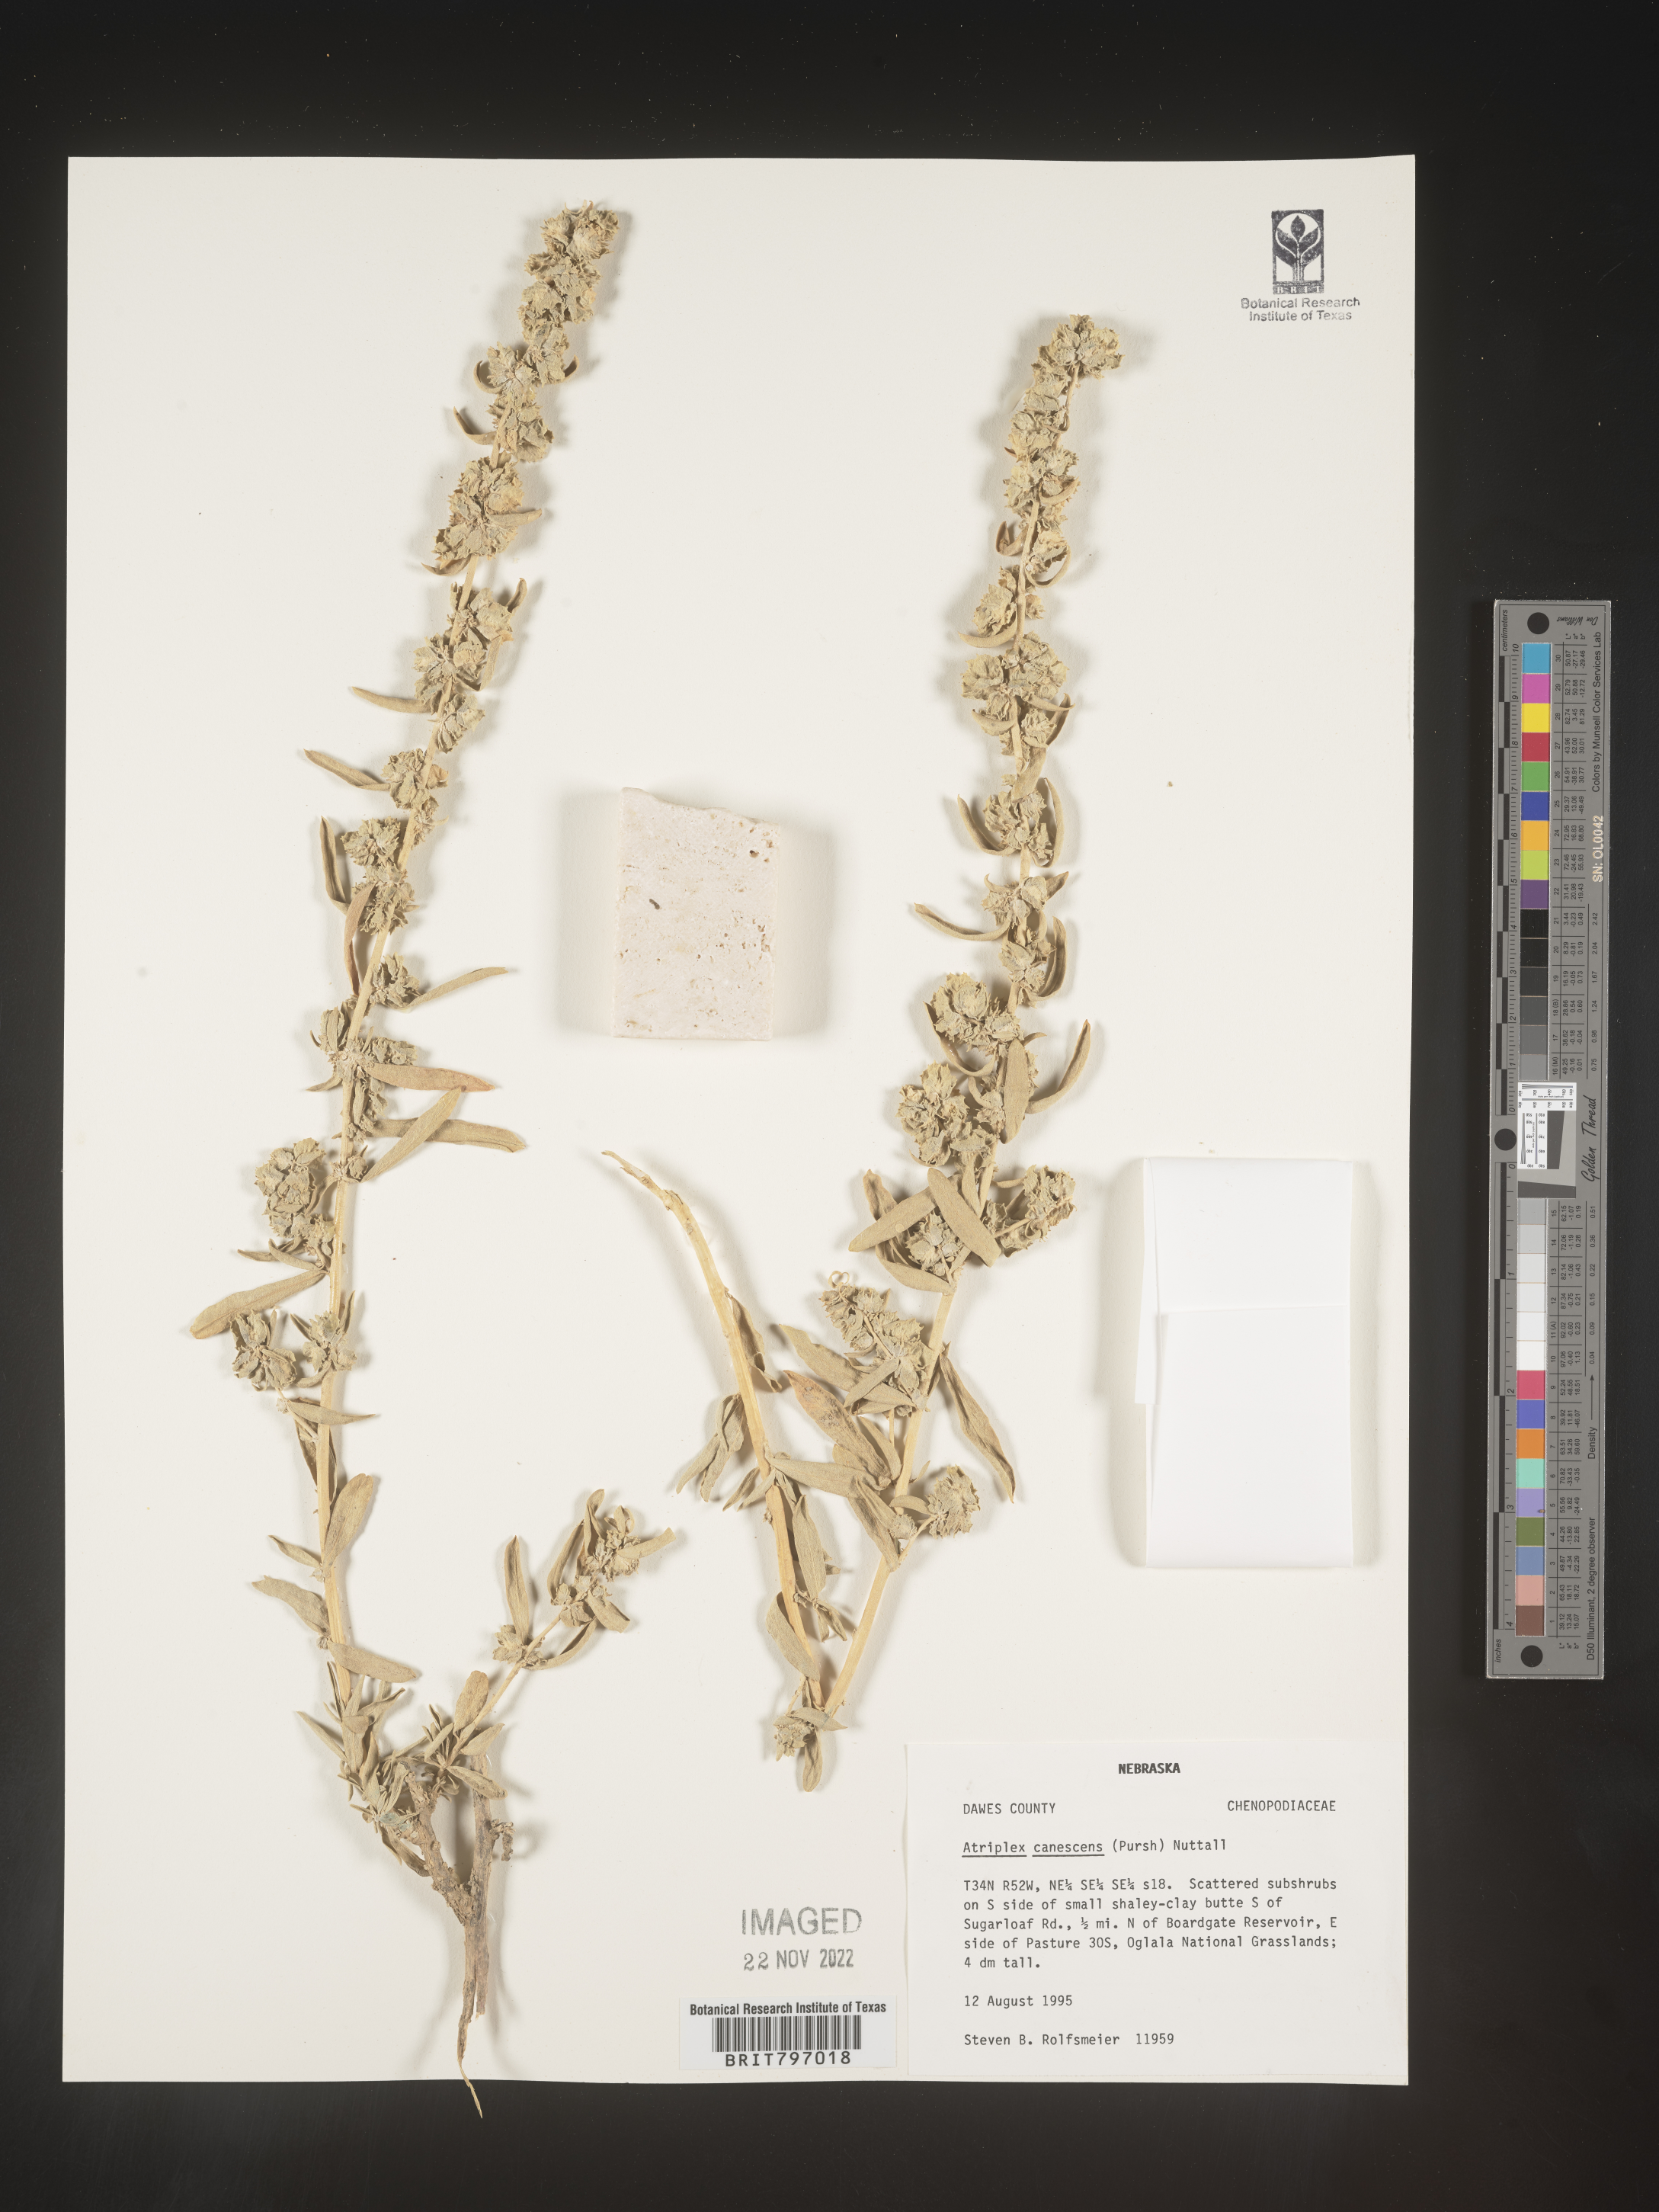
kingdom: Plantae
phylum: Tracheophyta
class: Magnoliopsida
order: Caryophyllales
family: Amaranthaceae
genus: Atriplex
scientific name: Atriplex canescens
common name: Four-wing saltbush
